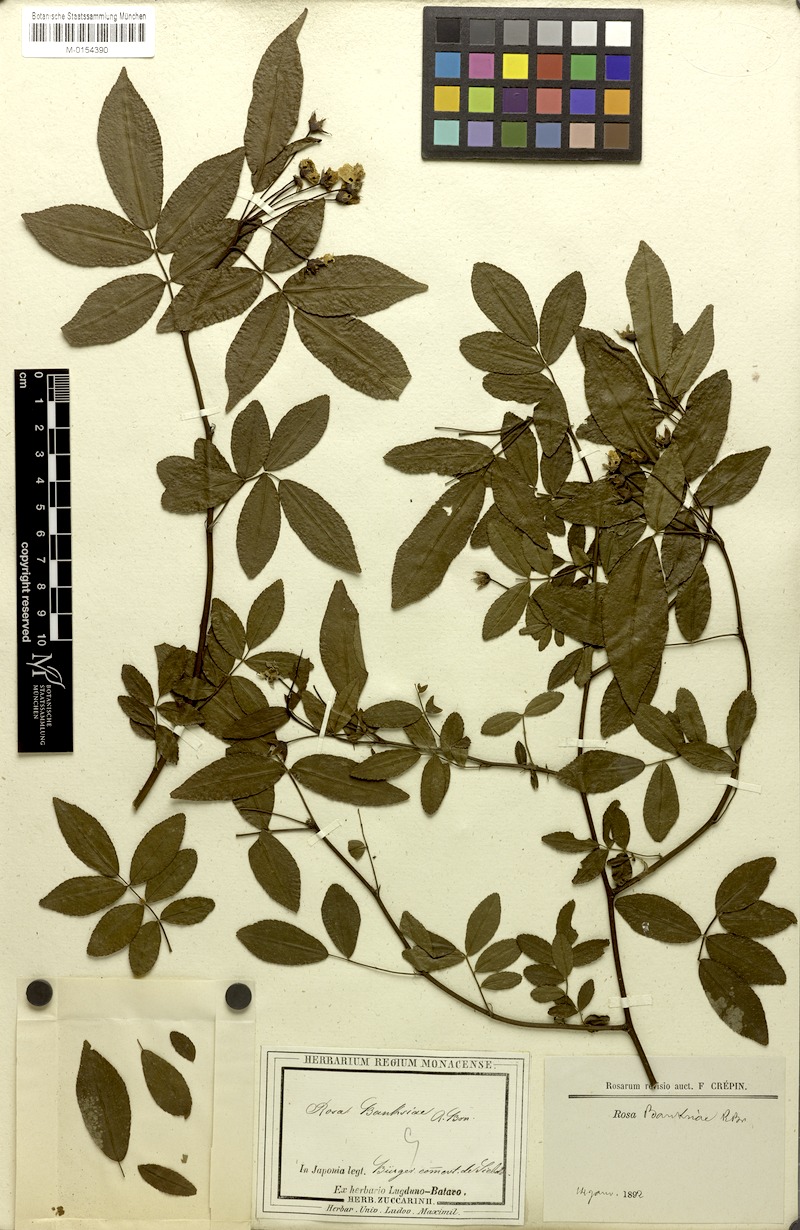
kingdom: Plantae
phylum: Tracheophyta
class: Magnoliopsida
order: Rosales
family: Rosaceae
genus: Rosa
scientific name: Rosa banksiae
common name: Banksian rose
